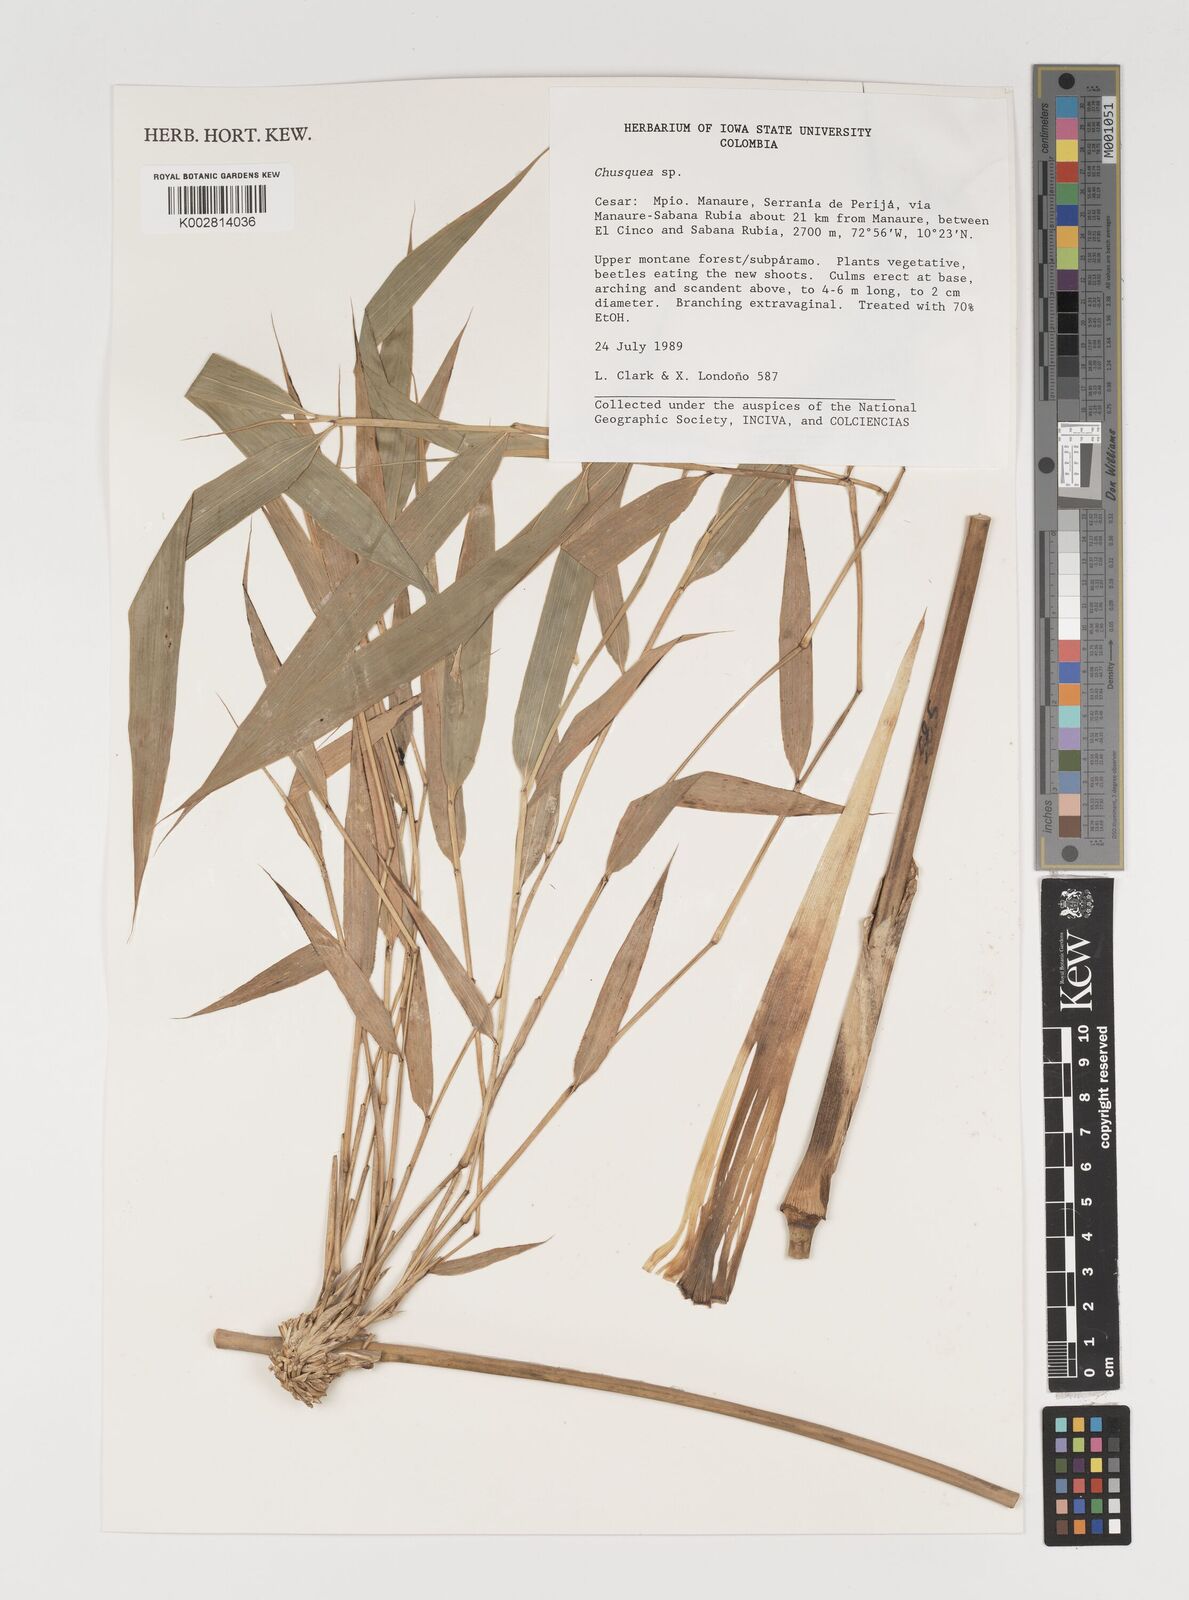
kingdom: Plantae
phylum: Tracheophyta
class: Liliopsida
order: Poales
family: Poaceae
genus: Chusquea
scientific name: Chusquea
